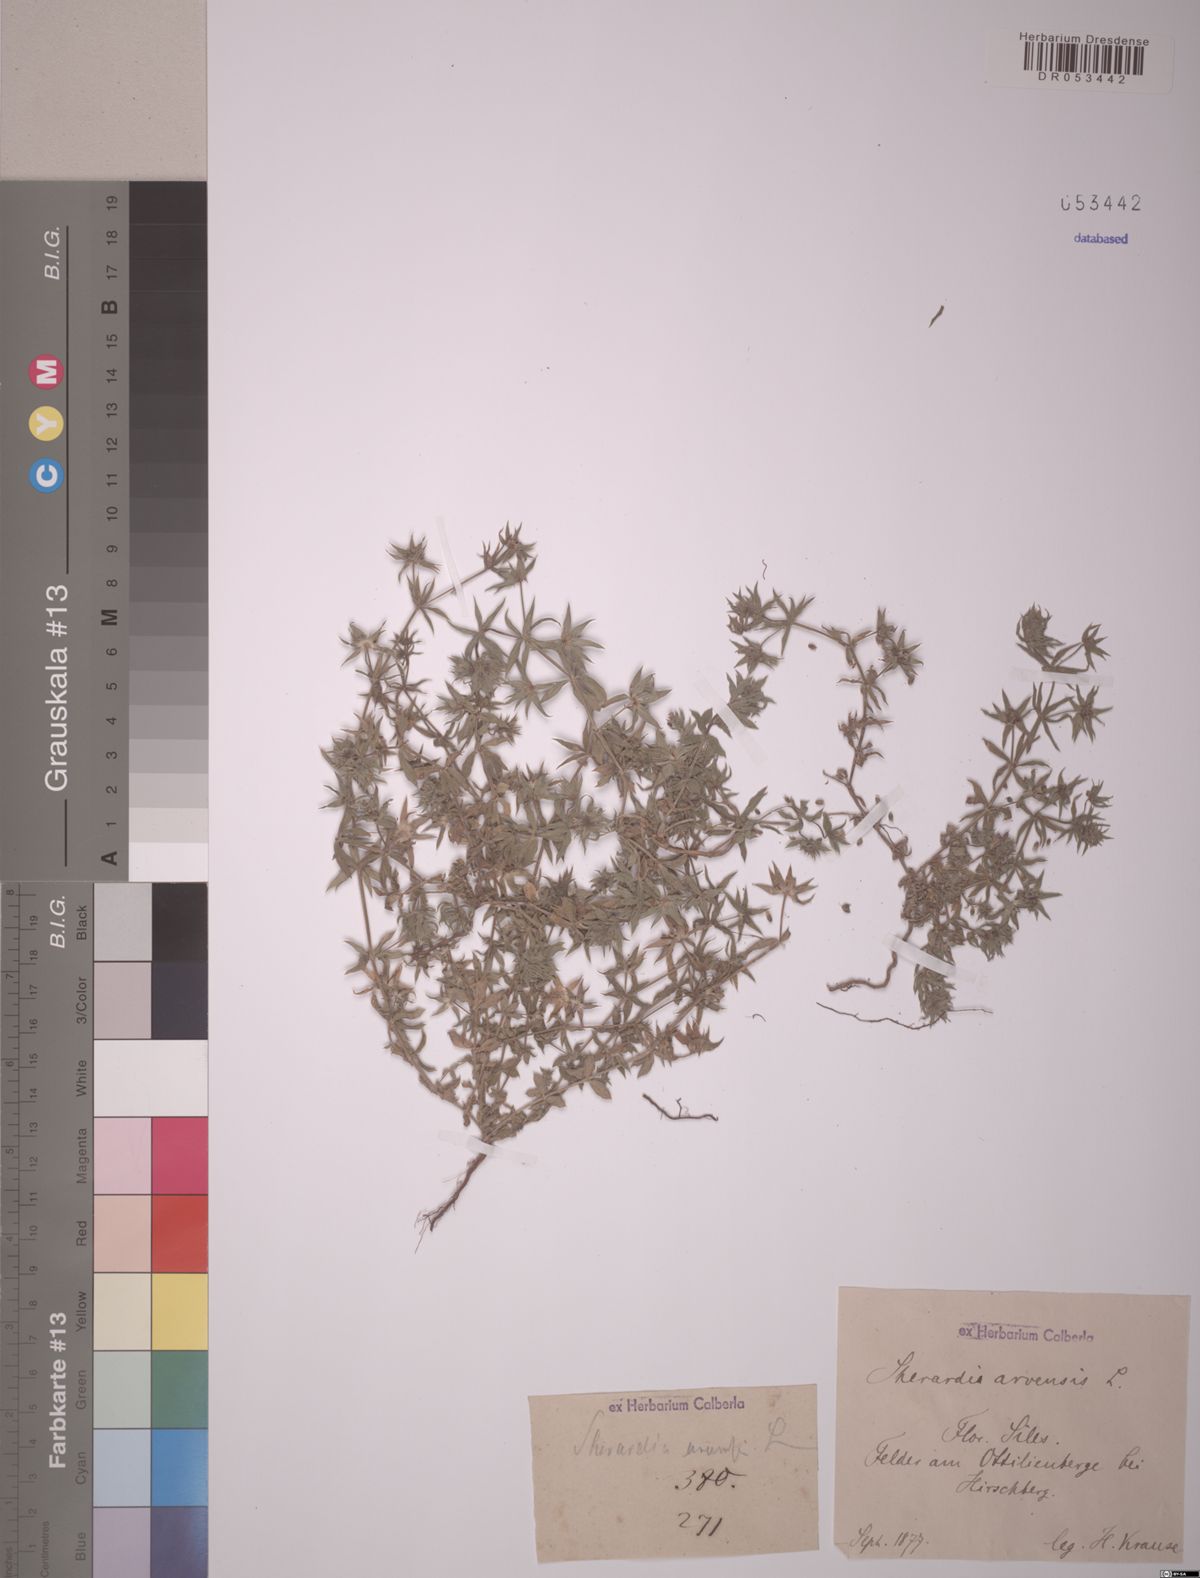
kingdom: Plantae
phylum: Tracheophyta
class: Magnoliopsida
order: Gentianales
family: Rubiaceae
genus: Sherardia
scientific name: Sherardia arvensis
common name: Field madder
